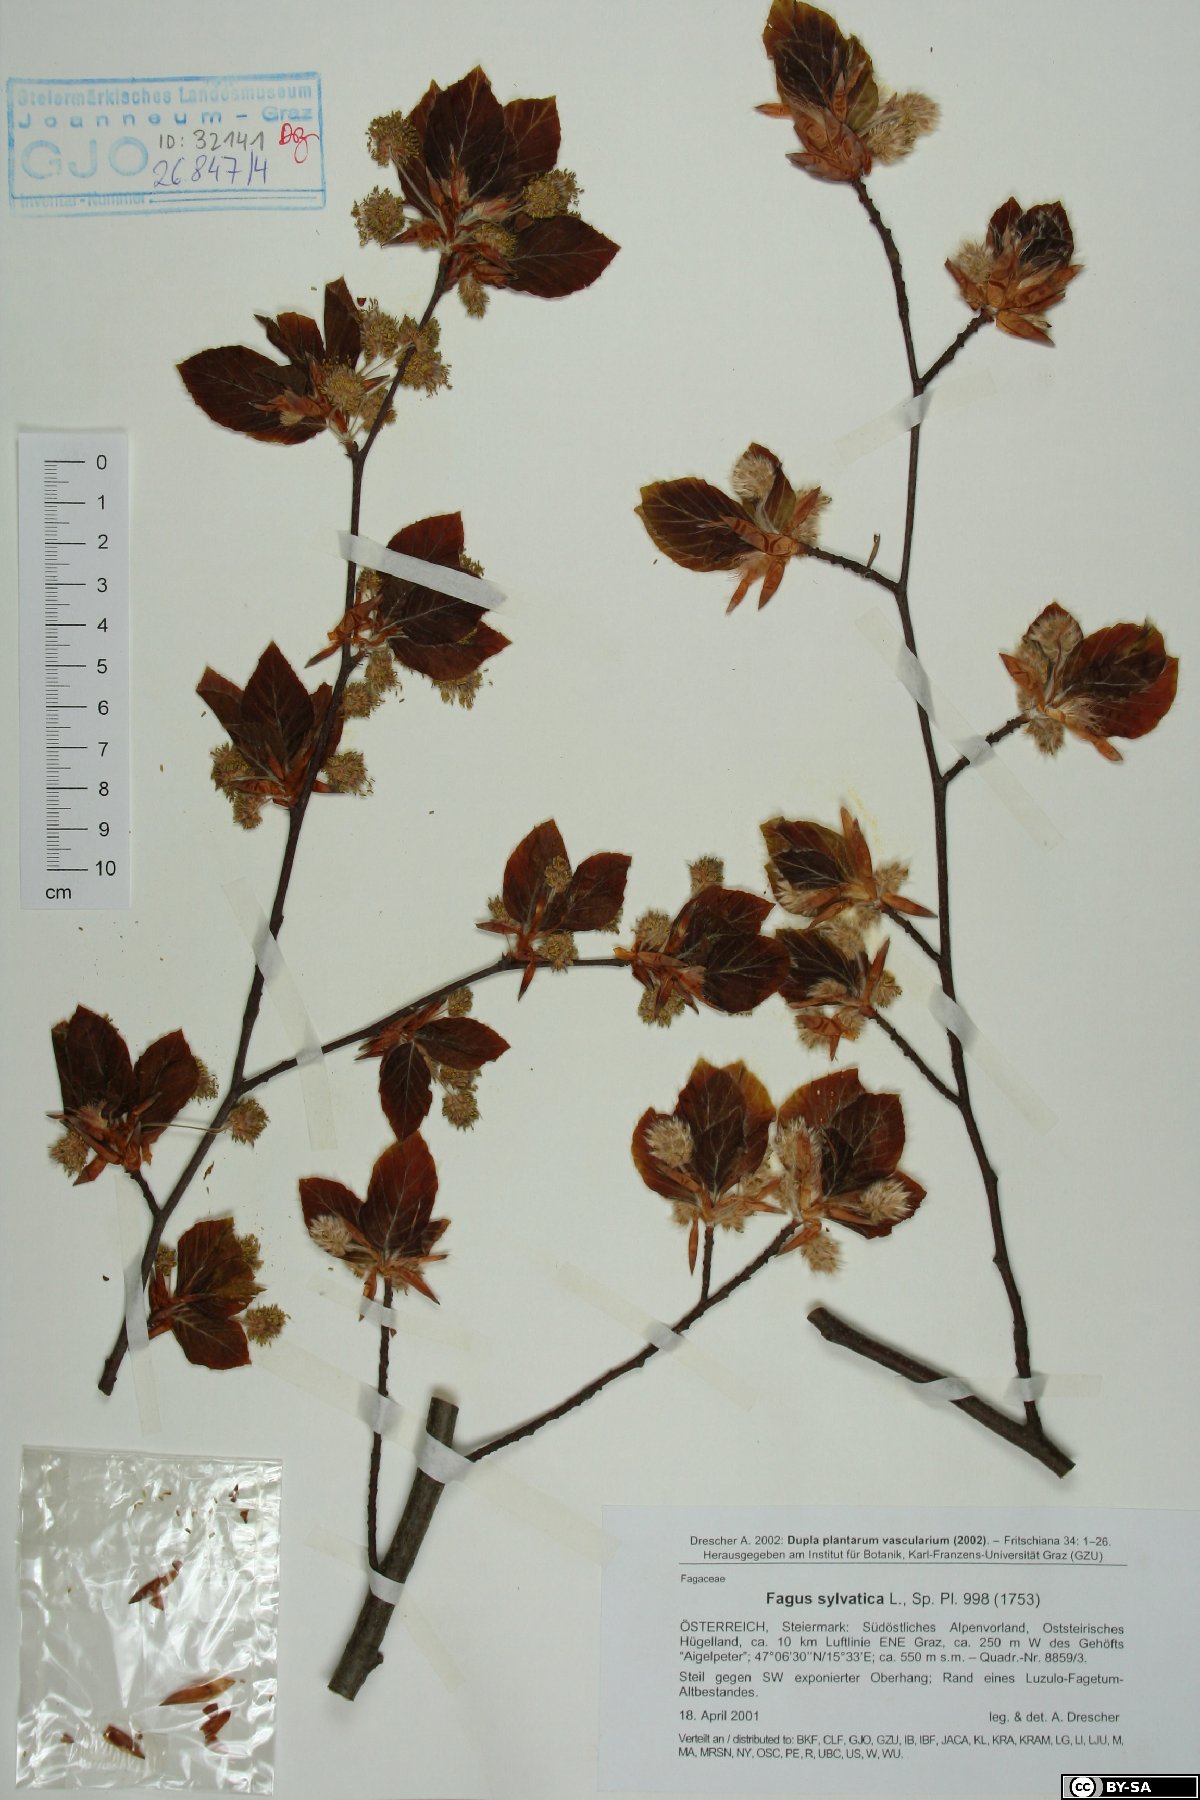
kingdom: Plantae
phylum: Tracheophyta
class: Magnoliopsida
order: Fagales
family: Fagaceae
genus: Fagus
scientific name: Fagus sylvatica
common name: Beech
